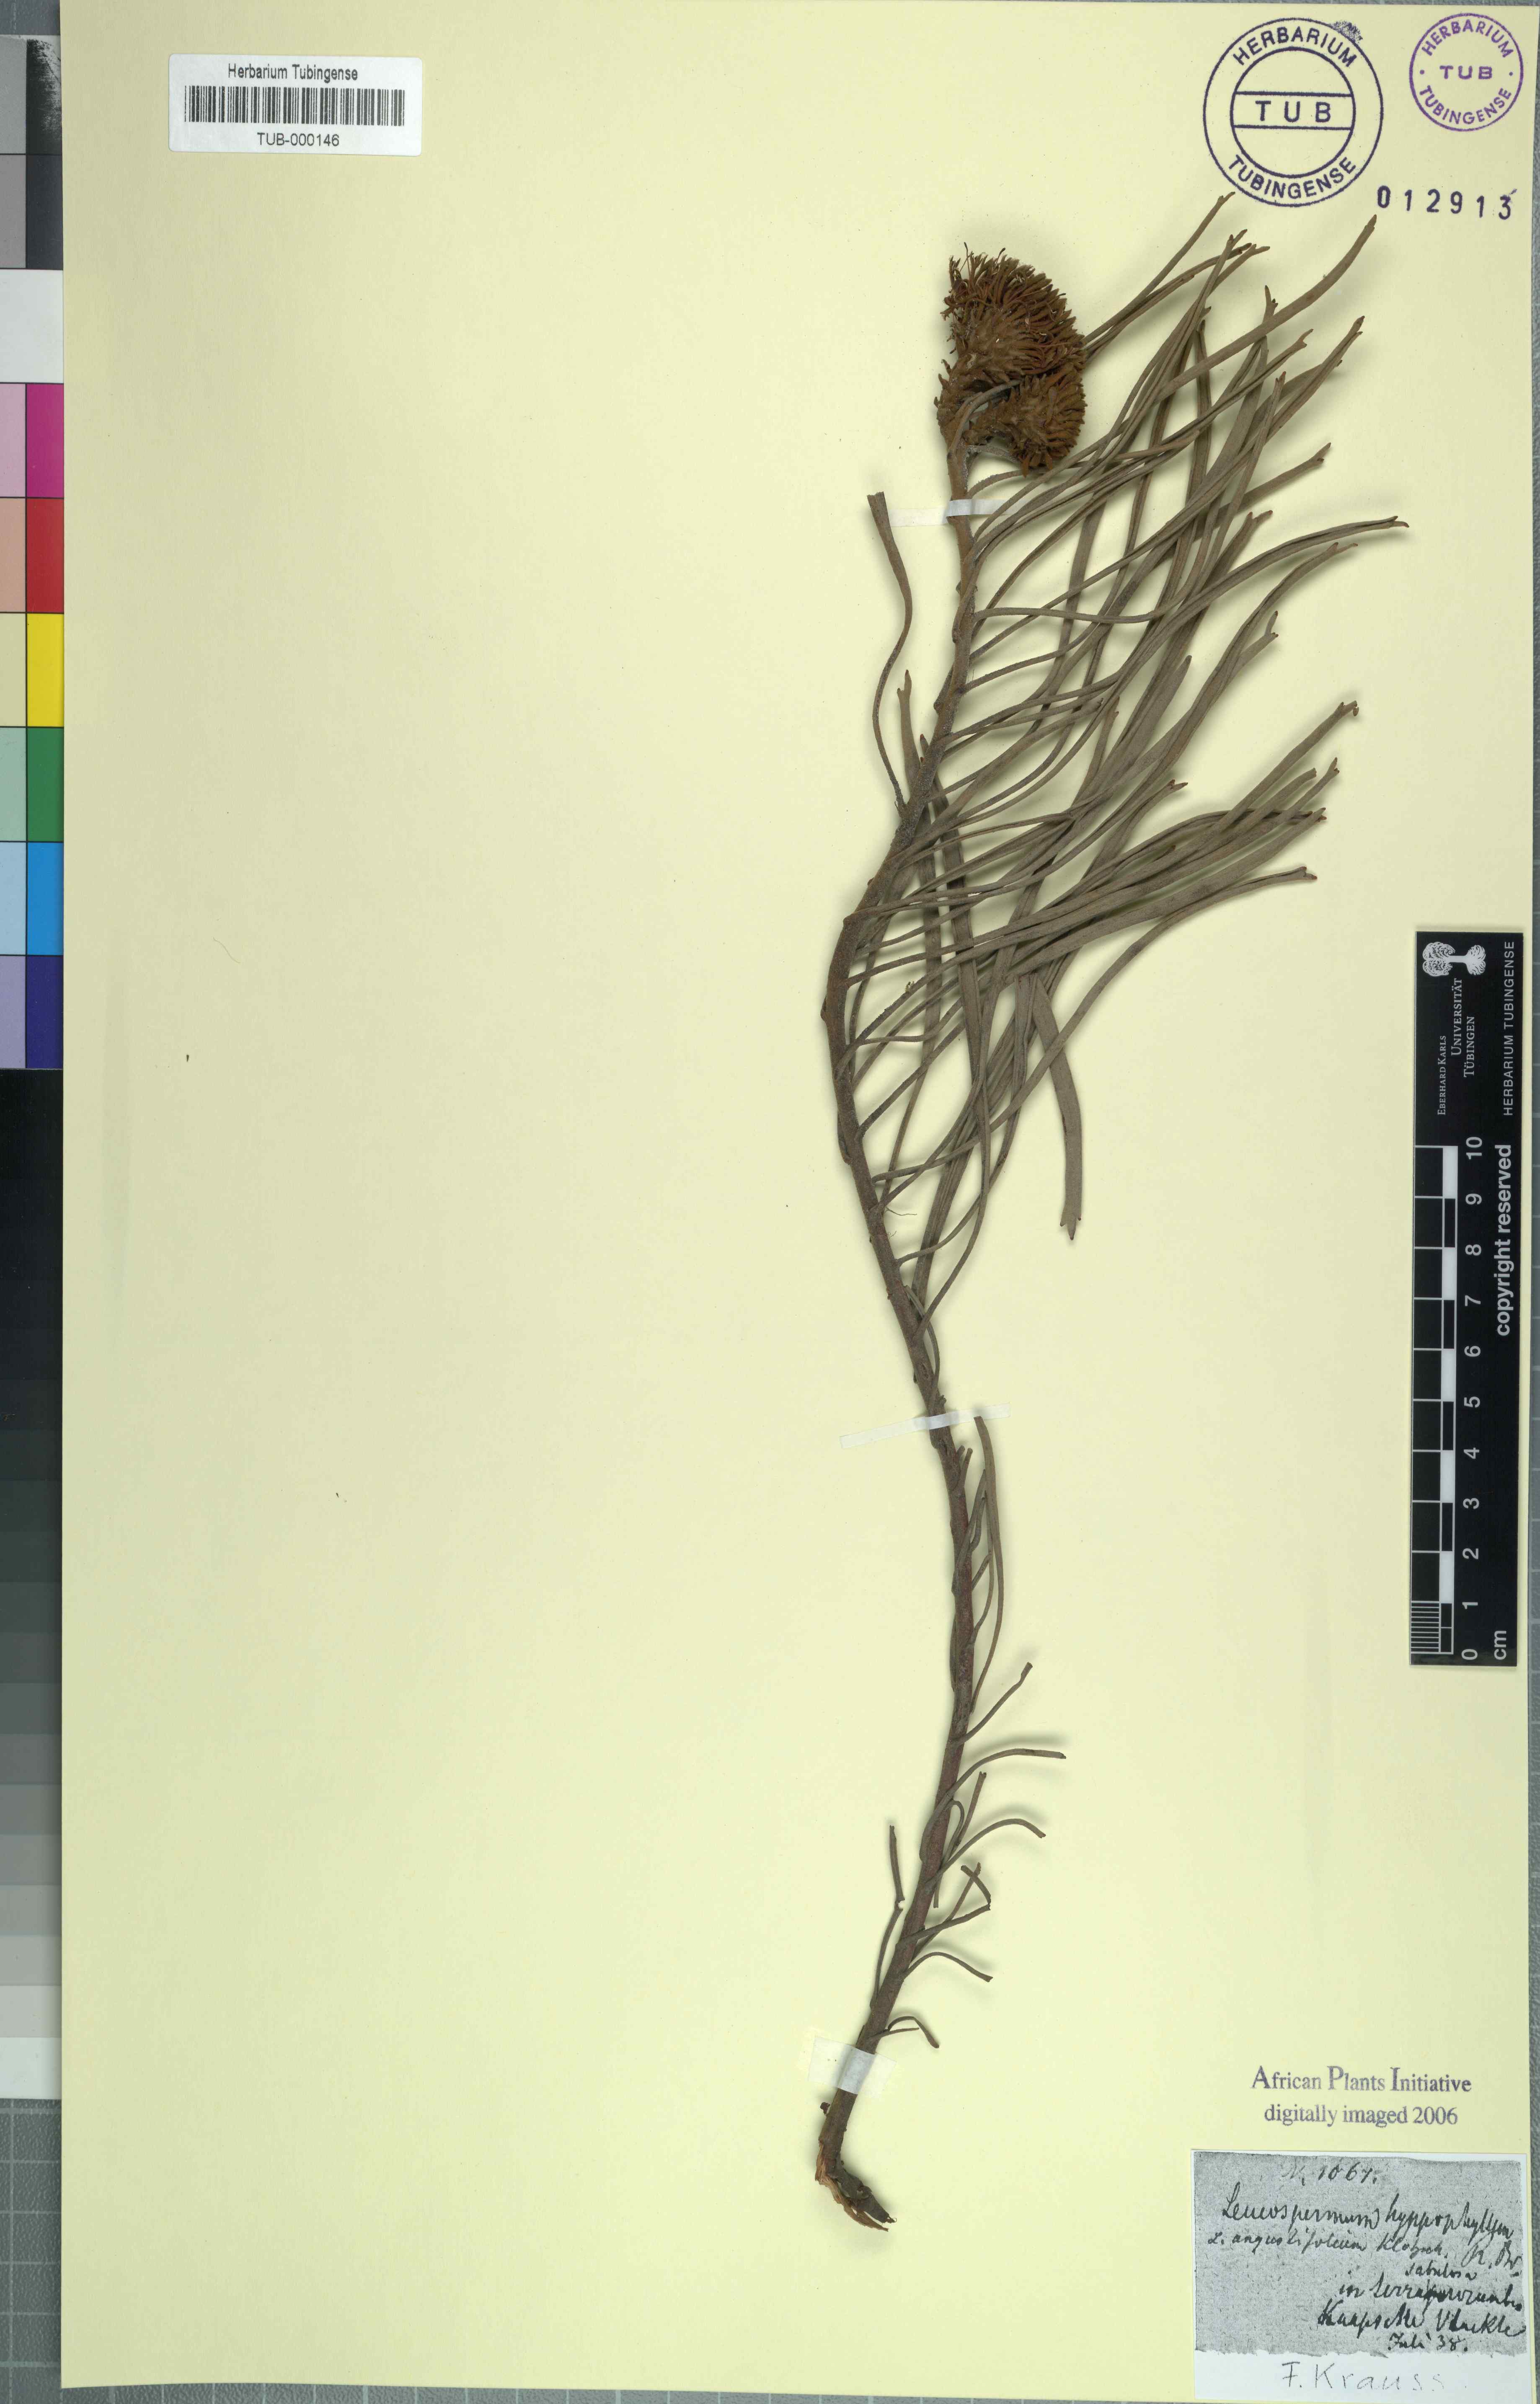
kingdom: Plantae
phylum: Tracheophyta
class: Magnoliopsida
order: Proteales
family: Proteaceae
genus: Leucospermum
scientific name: Leucospermum hypophyllocarpodendron
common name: Snakestem pincushion
